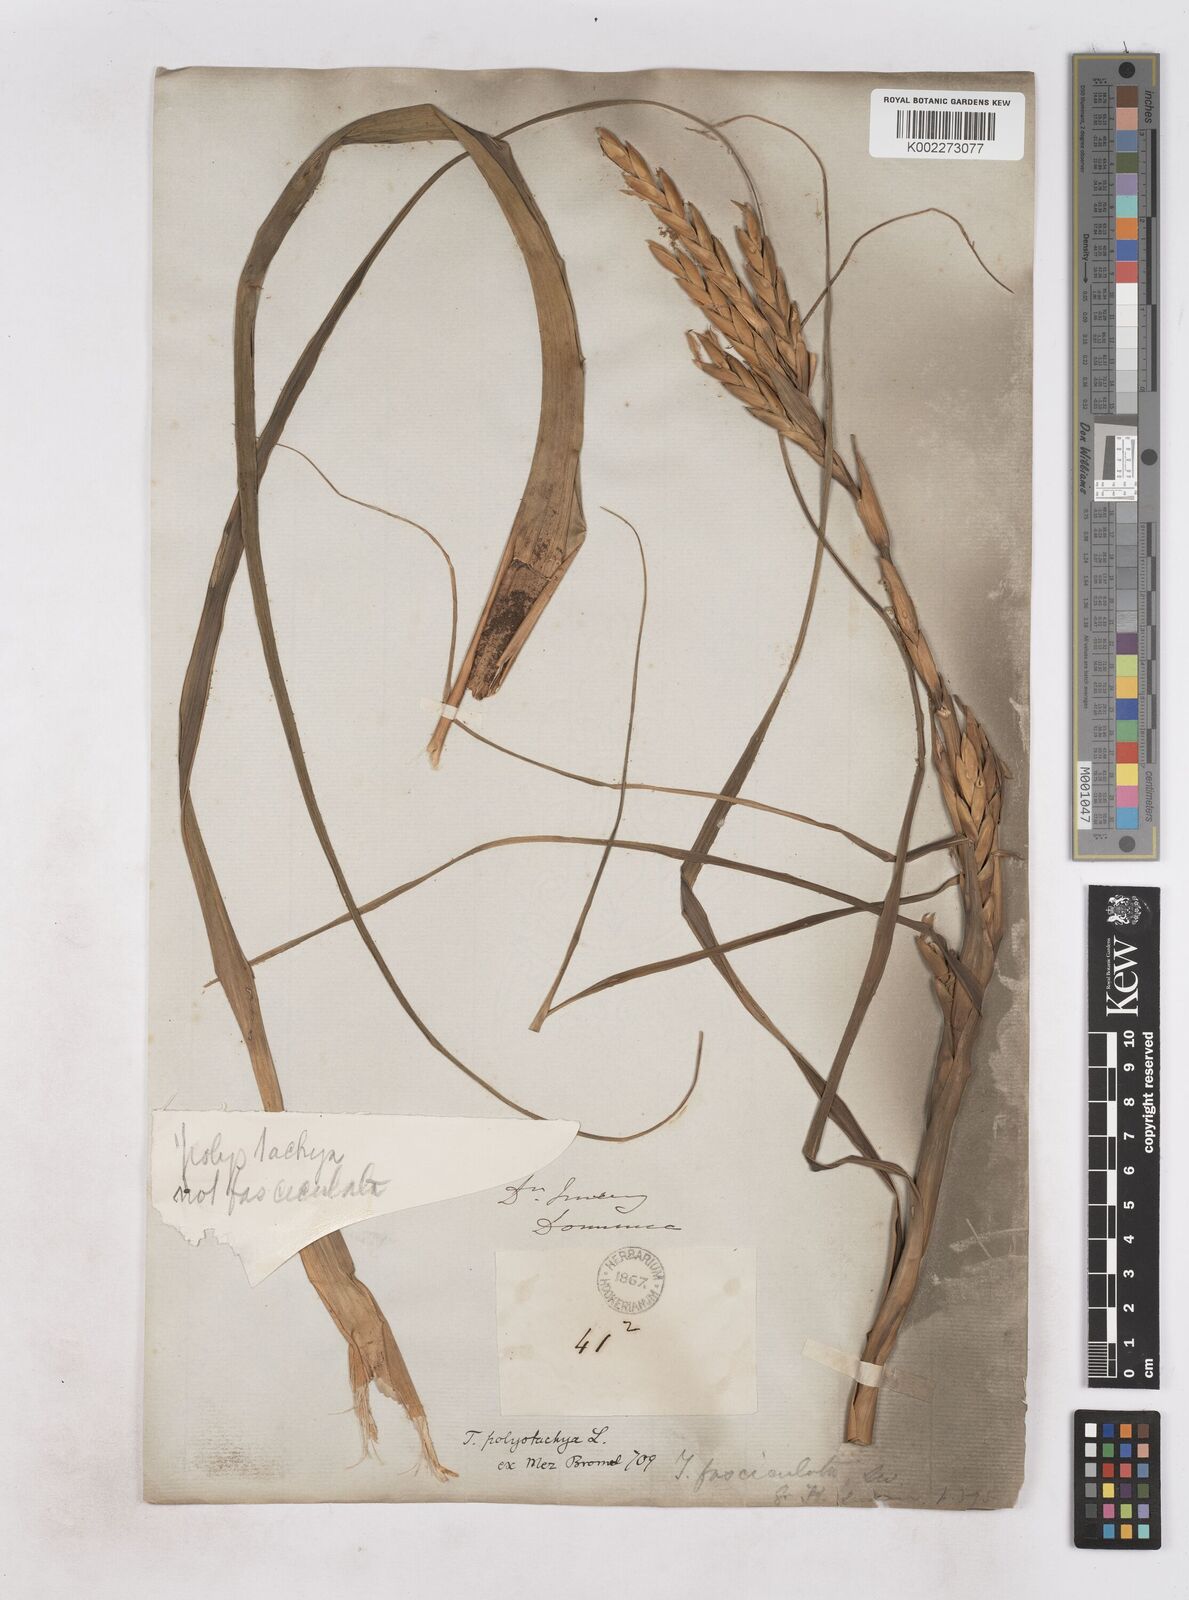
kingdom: Plantae
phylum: Tracheophyta
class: Liliopsida
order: Poales
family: Bromeliaceae
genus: Tillandsia
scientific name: Tillandsia polystachia
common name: Airplant
